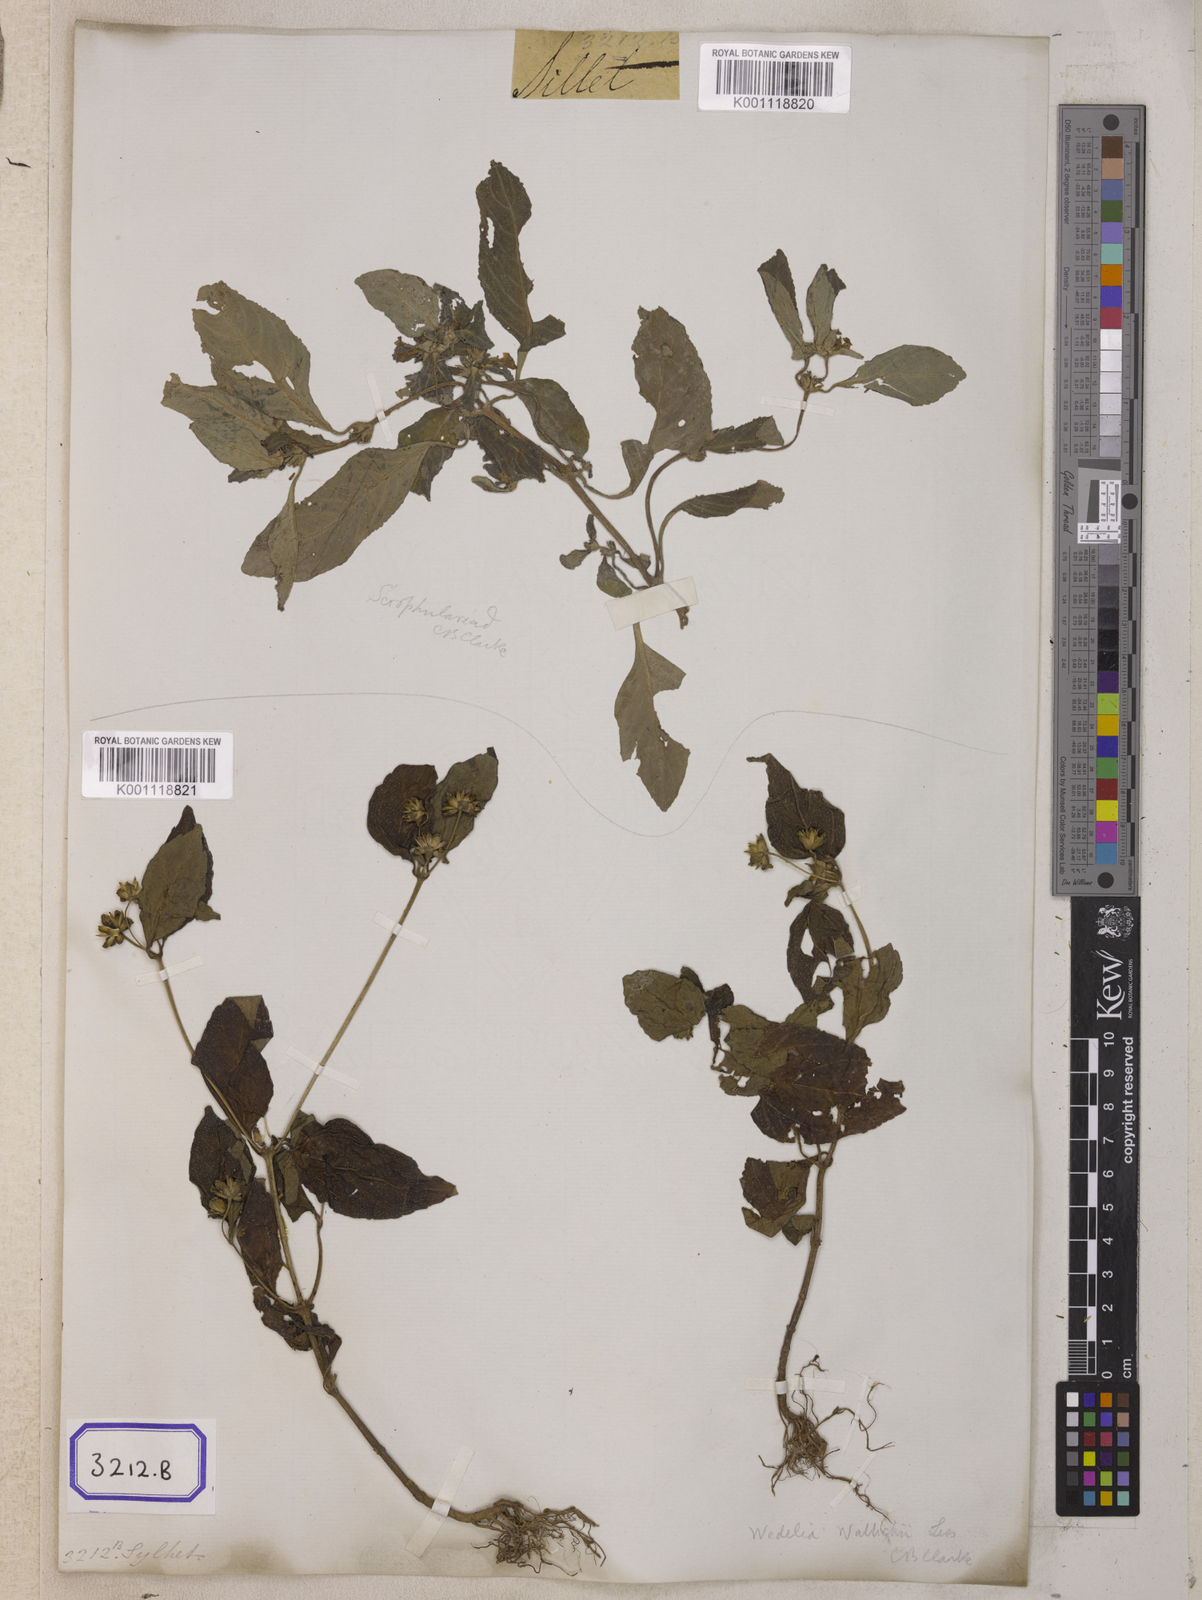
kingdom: Plantae
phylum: Tracheophyta
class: Magnoliopsida
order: Asterales
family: Asteraceae
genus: Wollastonia
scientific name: Wollastonia biflora
